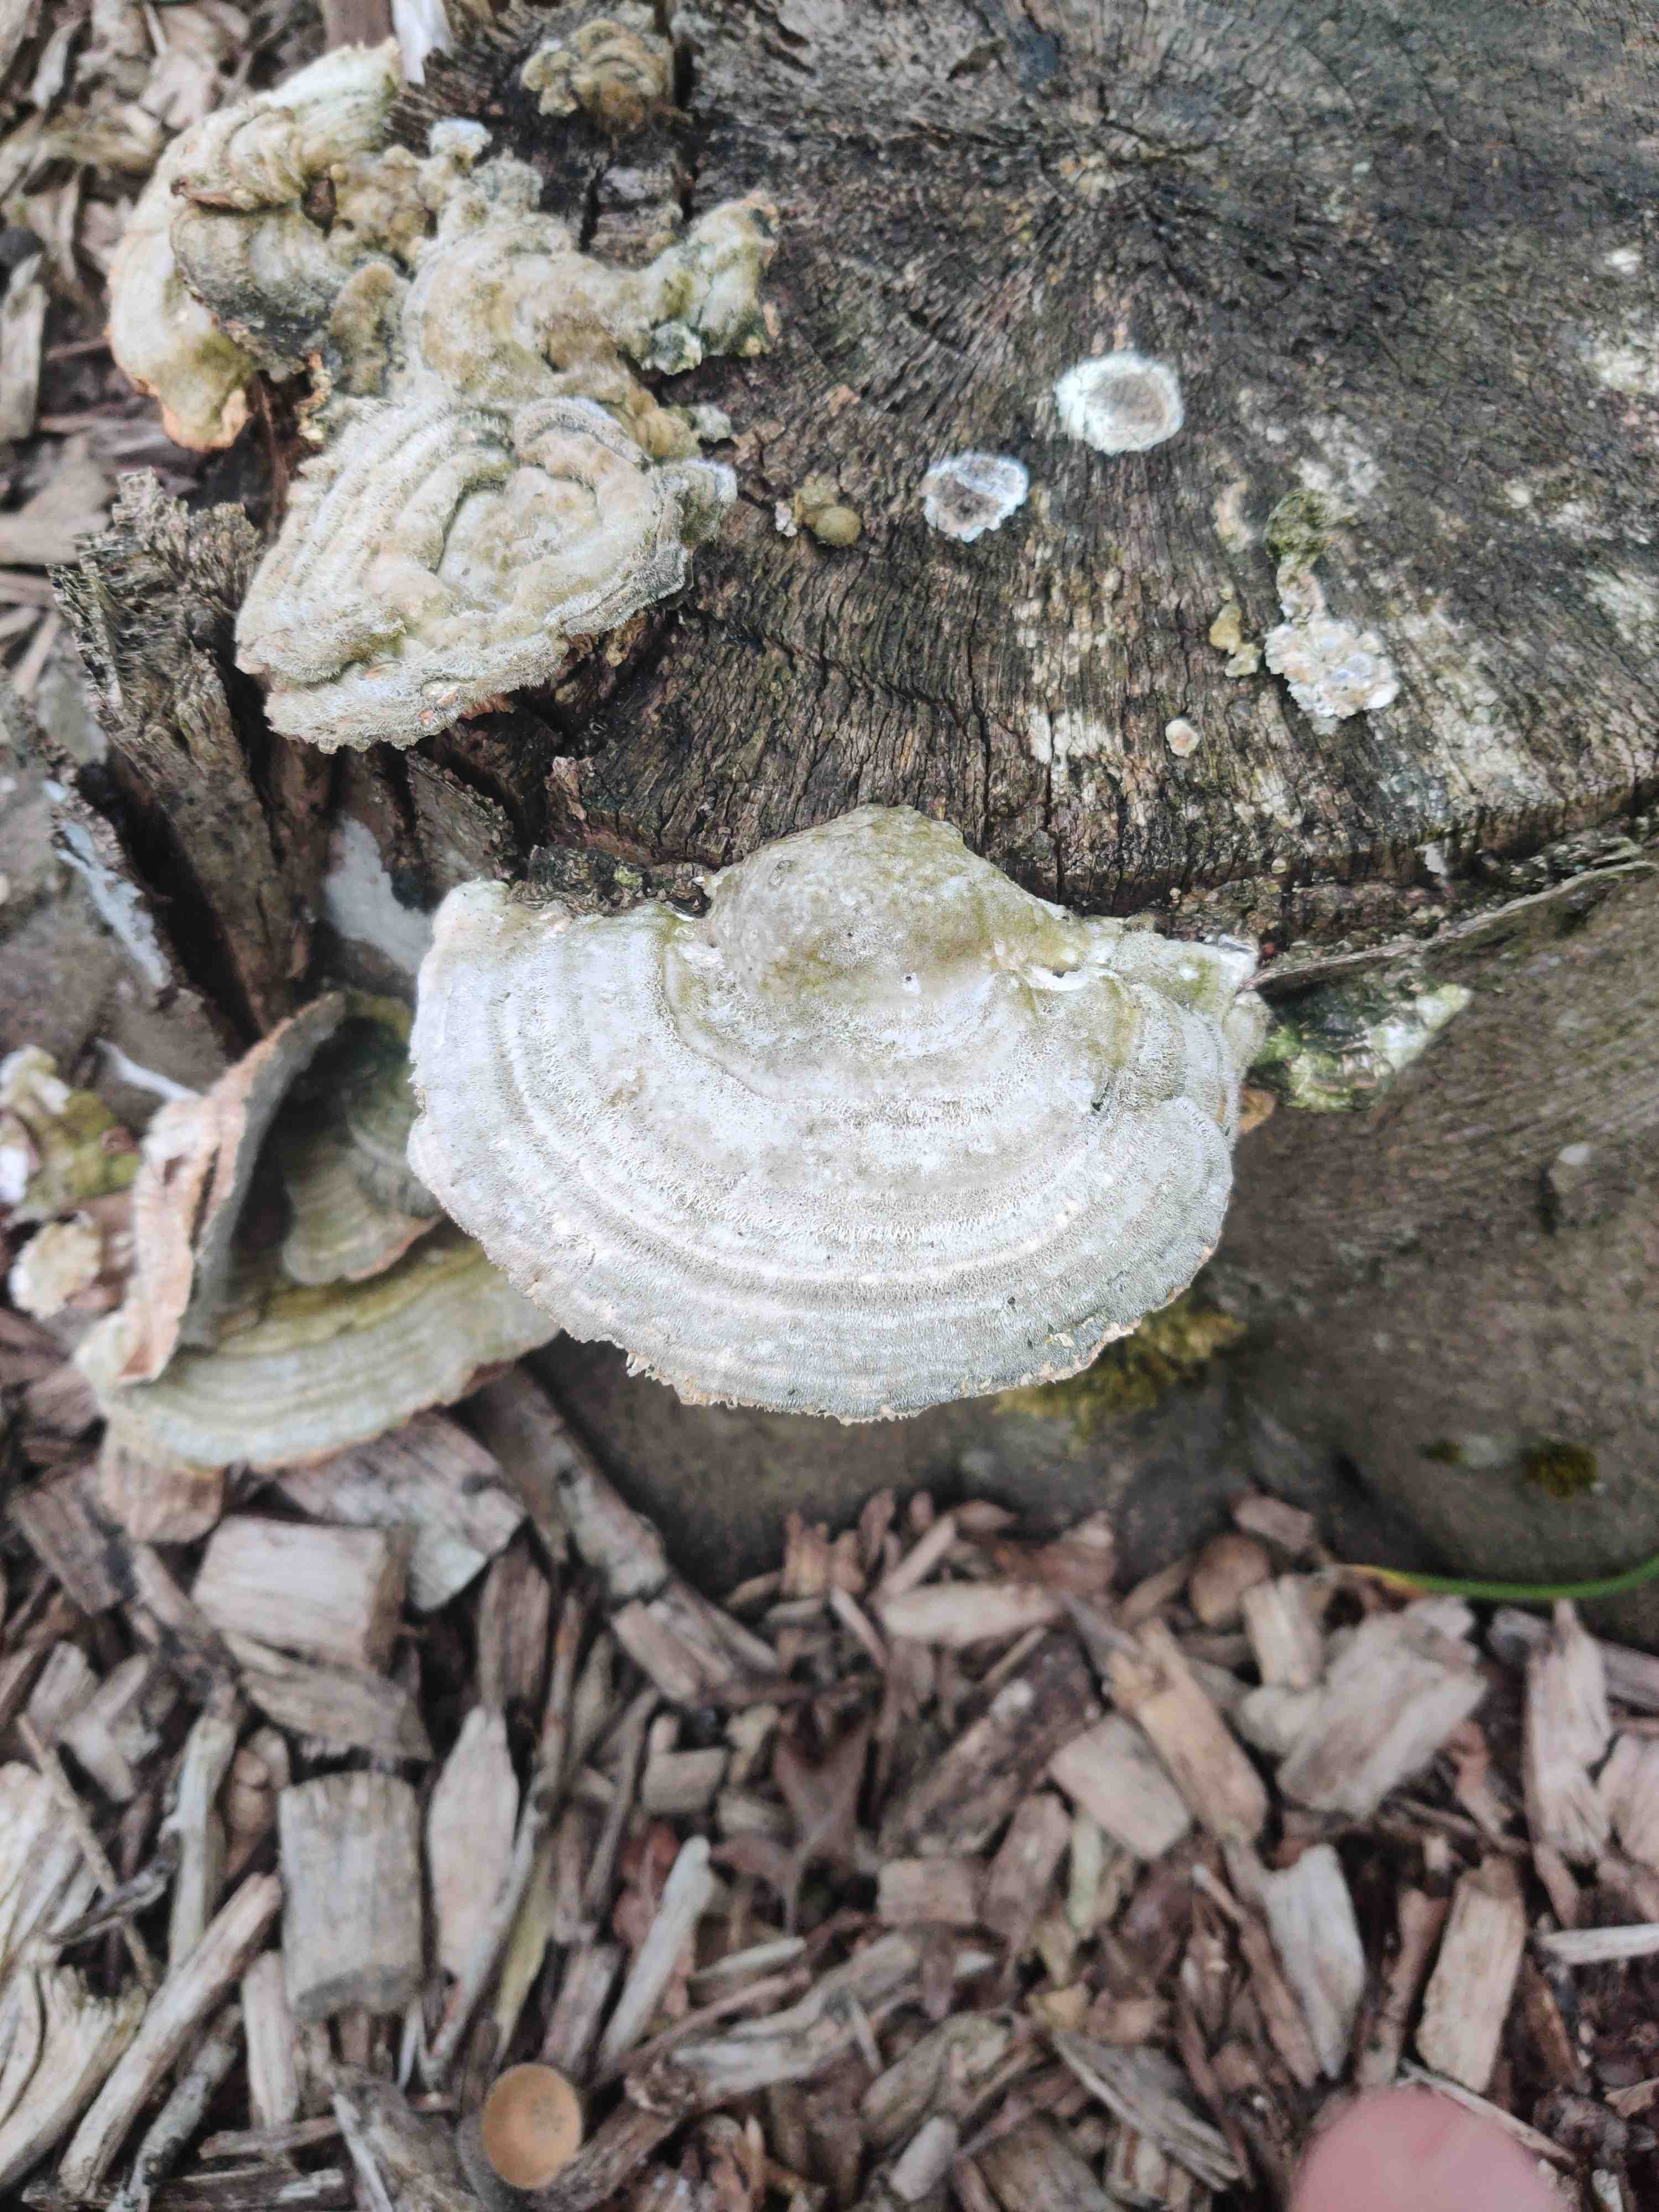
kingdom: Fungi
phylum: Basidiomycota
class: Agaricomycetes
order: Polyporales
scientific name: Polyporales
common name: poresvampordenen
